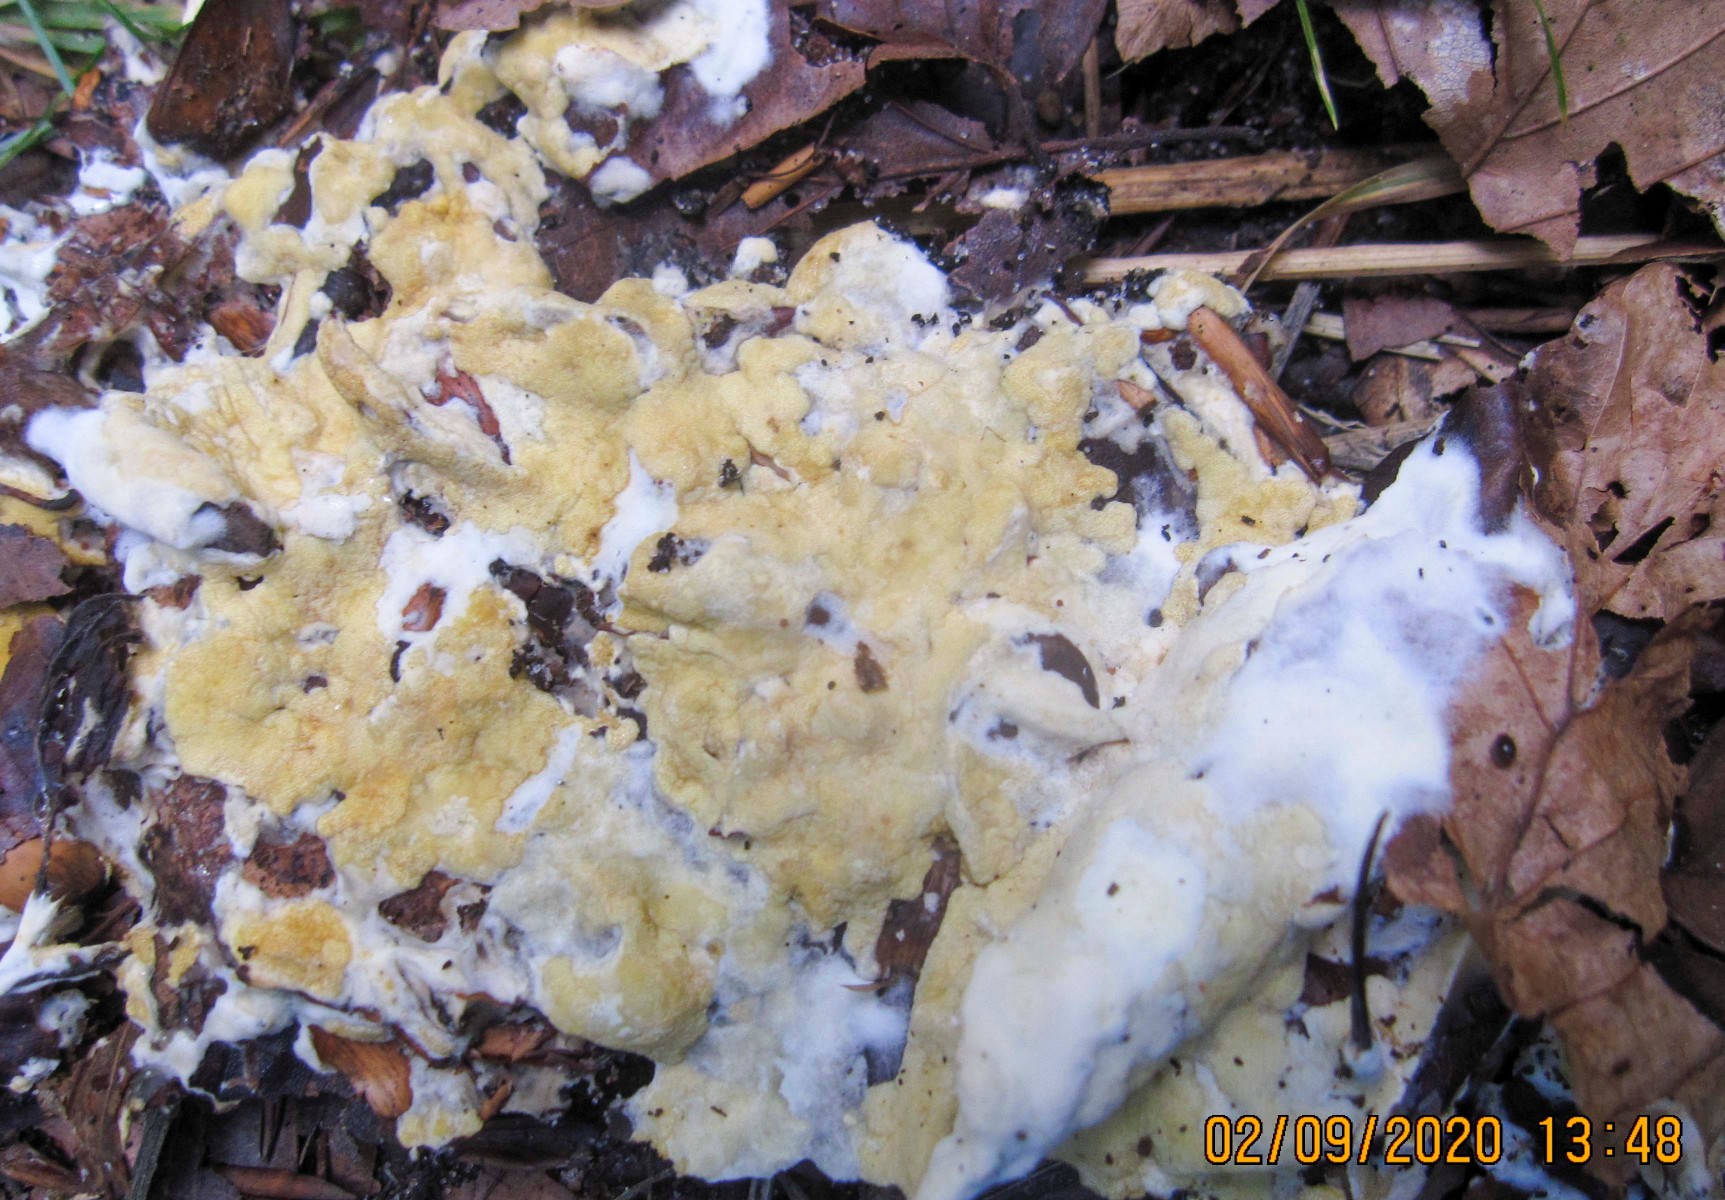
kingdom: Fungi
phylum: Ascomycota
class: Sordariomycetes
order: Hypocreales
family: Hypocreaceae
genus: Trichoderma
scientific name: Trichoderma citrinum
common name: udbredt kødkerne
